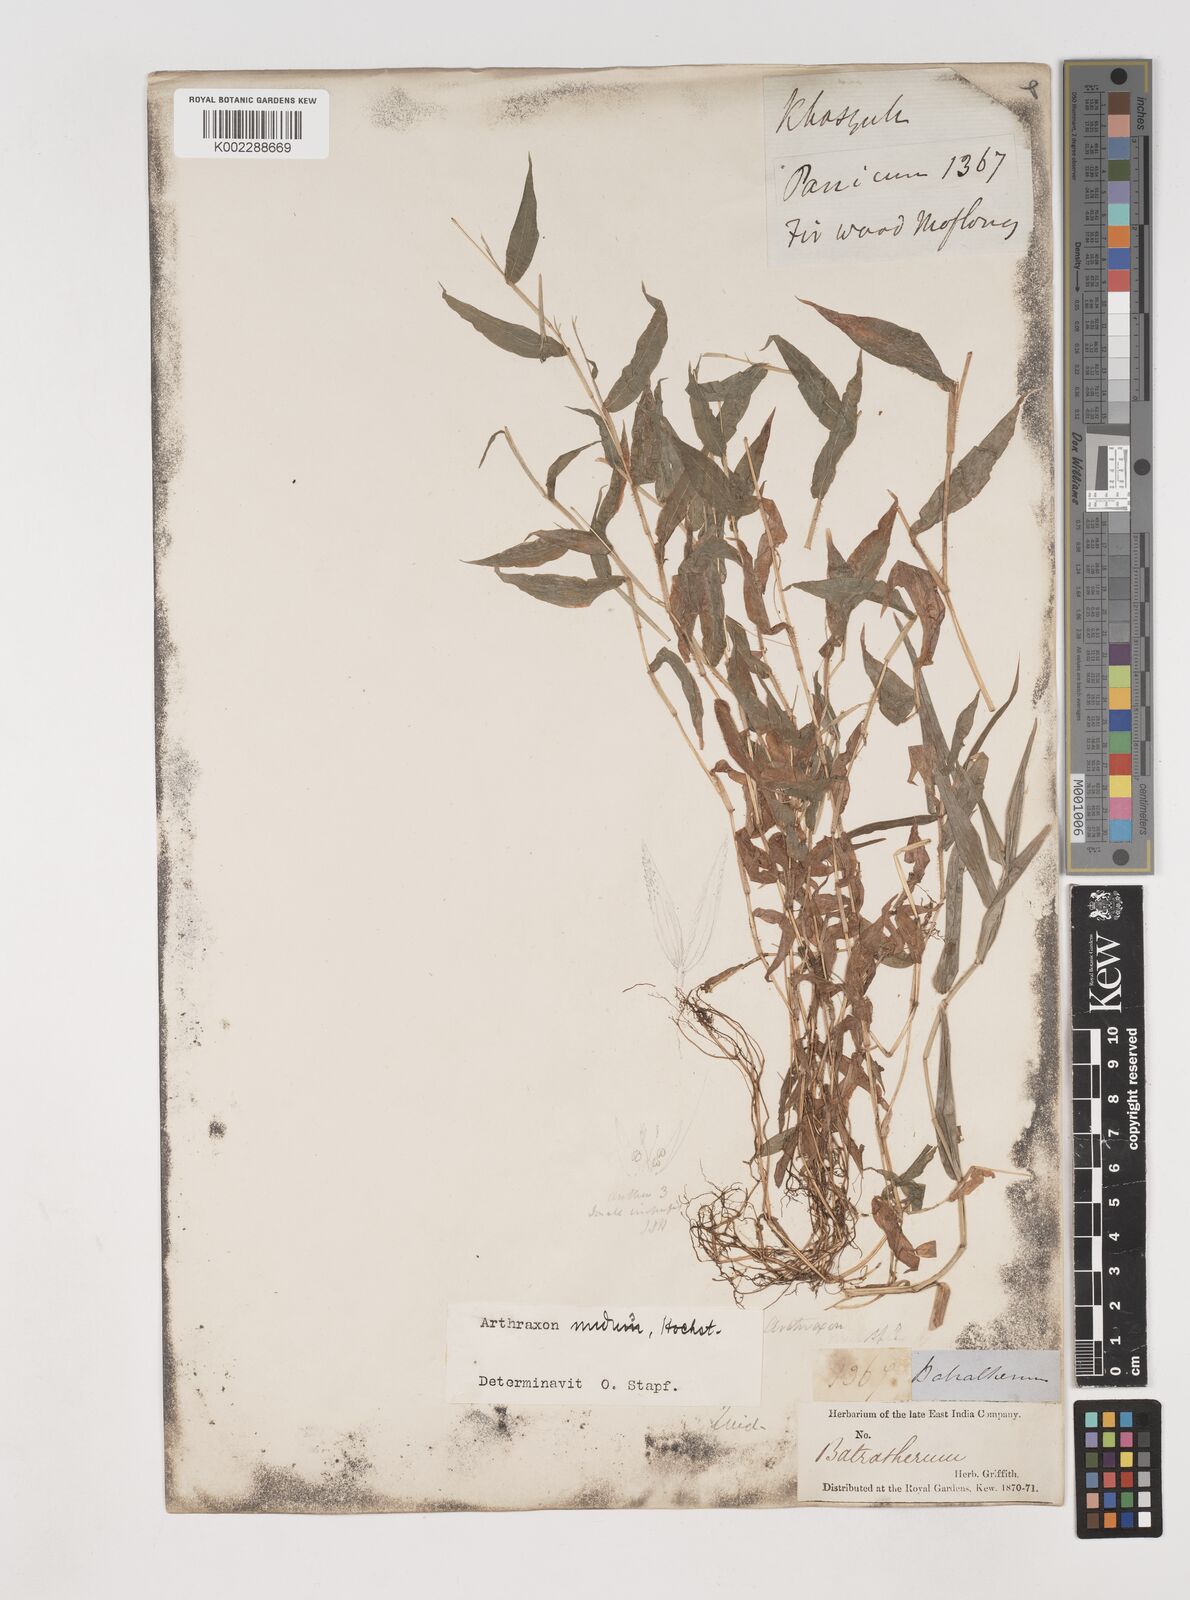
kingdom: Plantae
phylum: Tracheophyta
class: Liliopsida
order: Poales
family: Poaceae
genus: Arthraxon
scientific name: Arthraxon nudus
